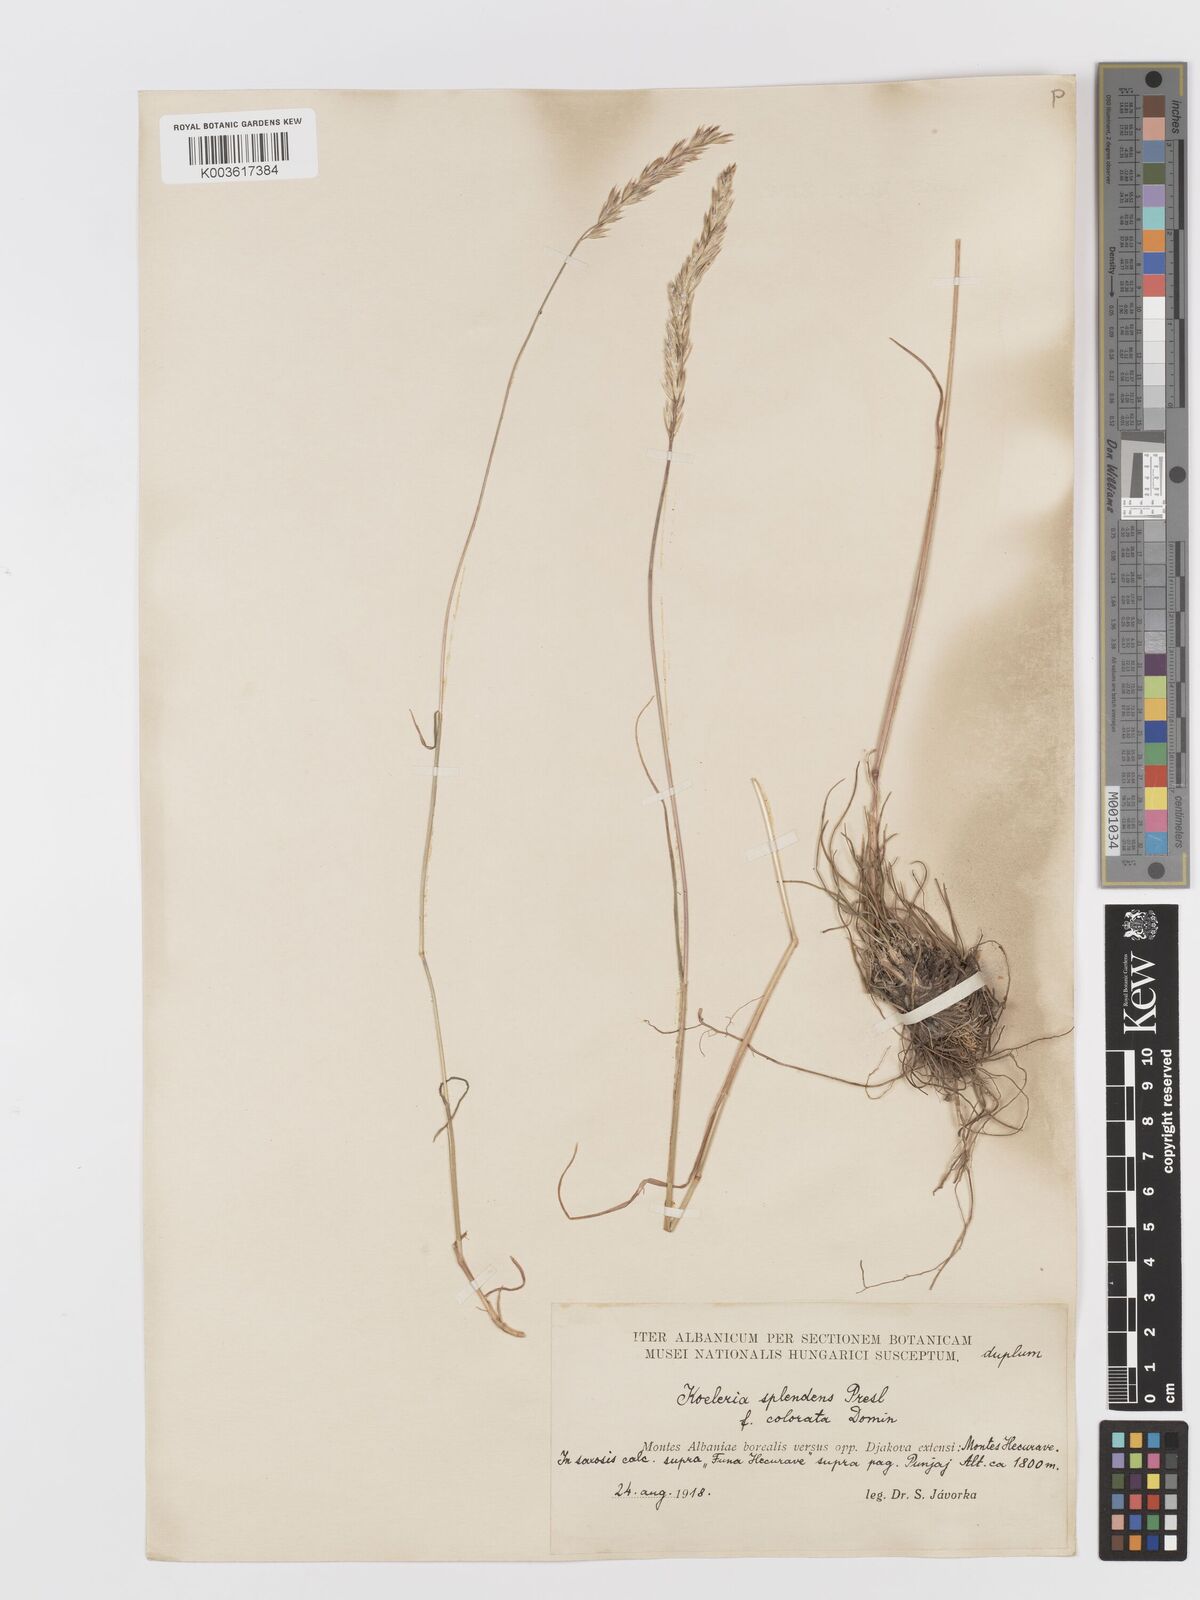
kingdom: Plantae
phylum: Tracheophyta
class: Liliopsida
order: Poales
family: Poaceae
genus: Koeleria
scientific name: Koeleria splendens
